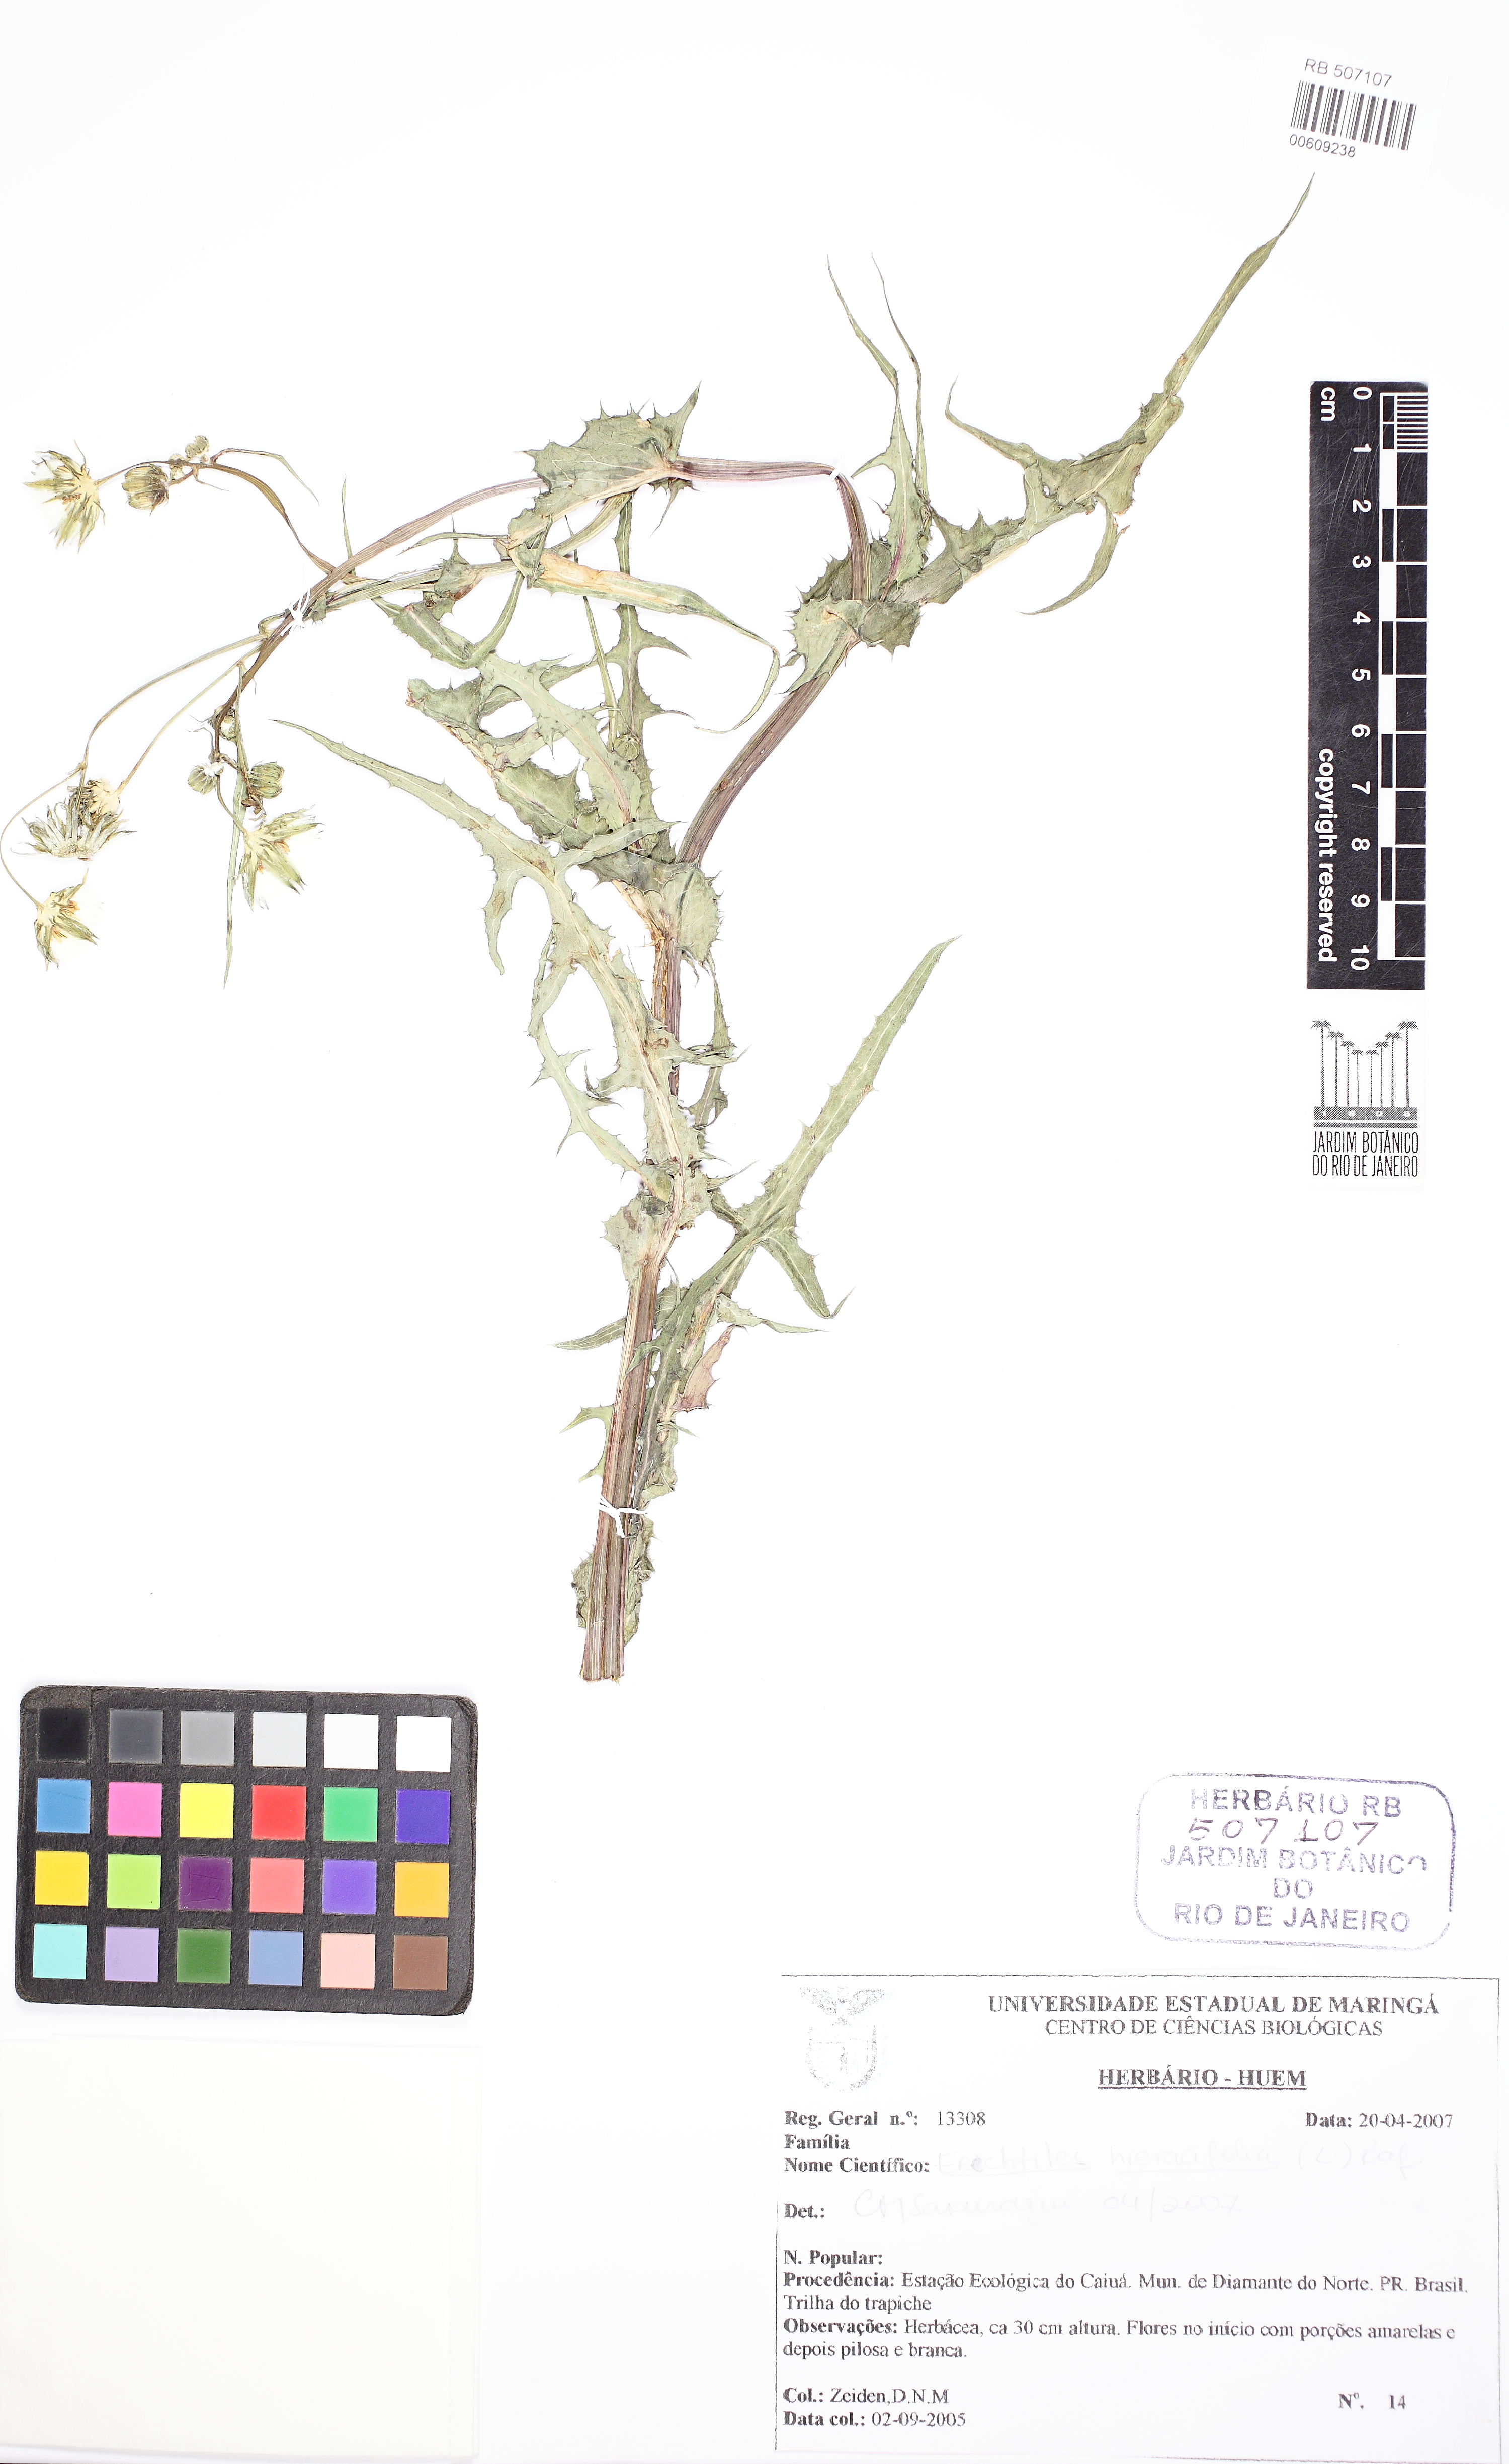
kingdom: Plantae
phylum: Tracheophyta
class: Magnoliopsida
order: Asterales
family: Asteraceae
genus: Erechtites
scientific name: Erechtites hieraciifolius
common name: American burnweed
